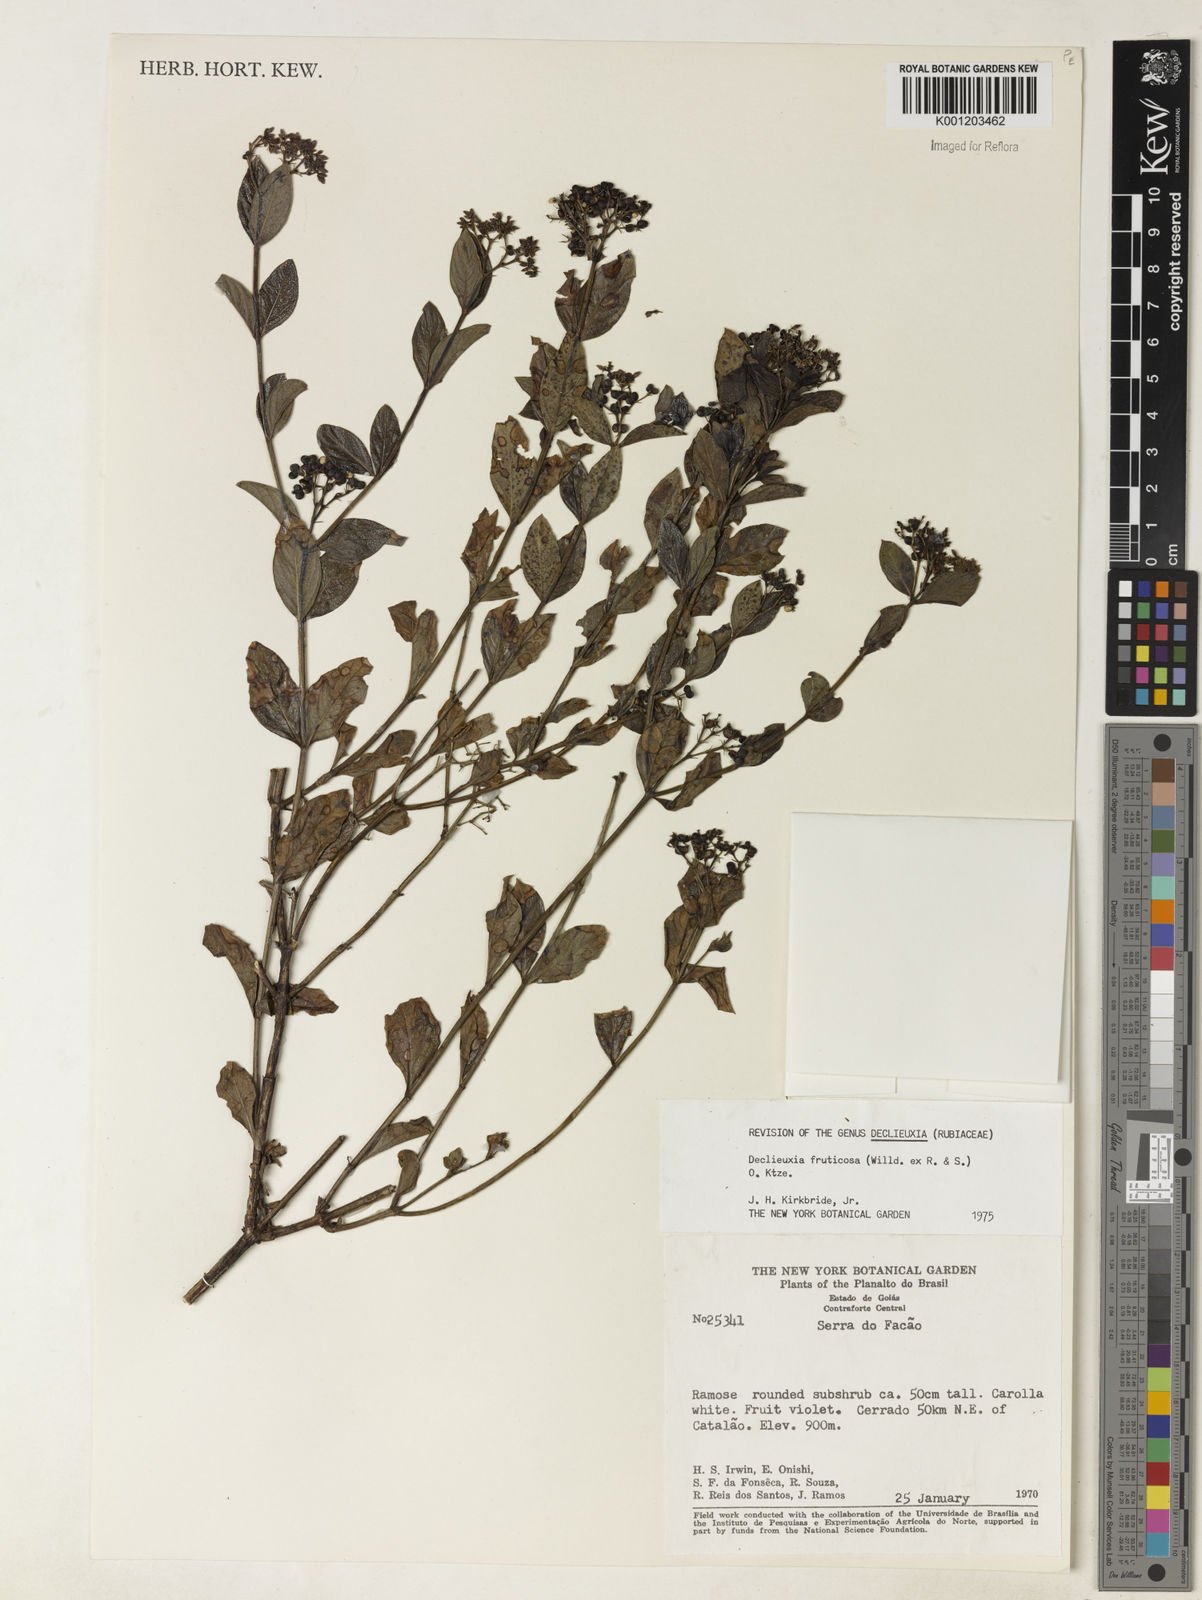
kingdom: Plantae
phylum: Tracheophyta
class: Magnoliopsida
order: Gentianales
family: Rubiaceae
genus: Declieuxia
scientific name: Declieuxia fruticosa
